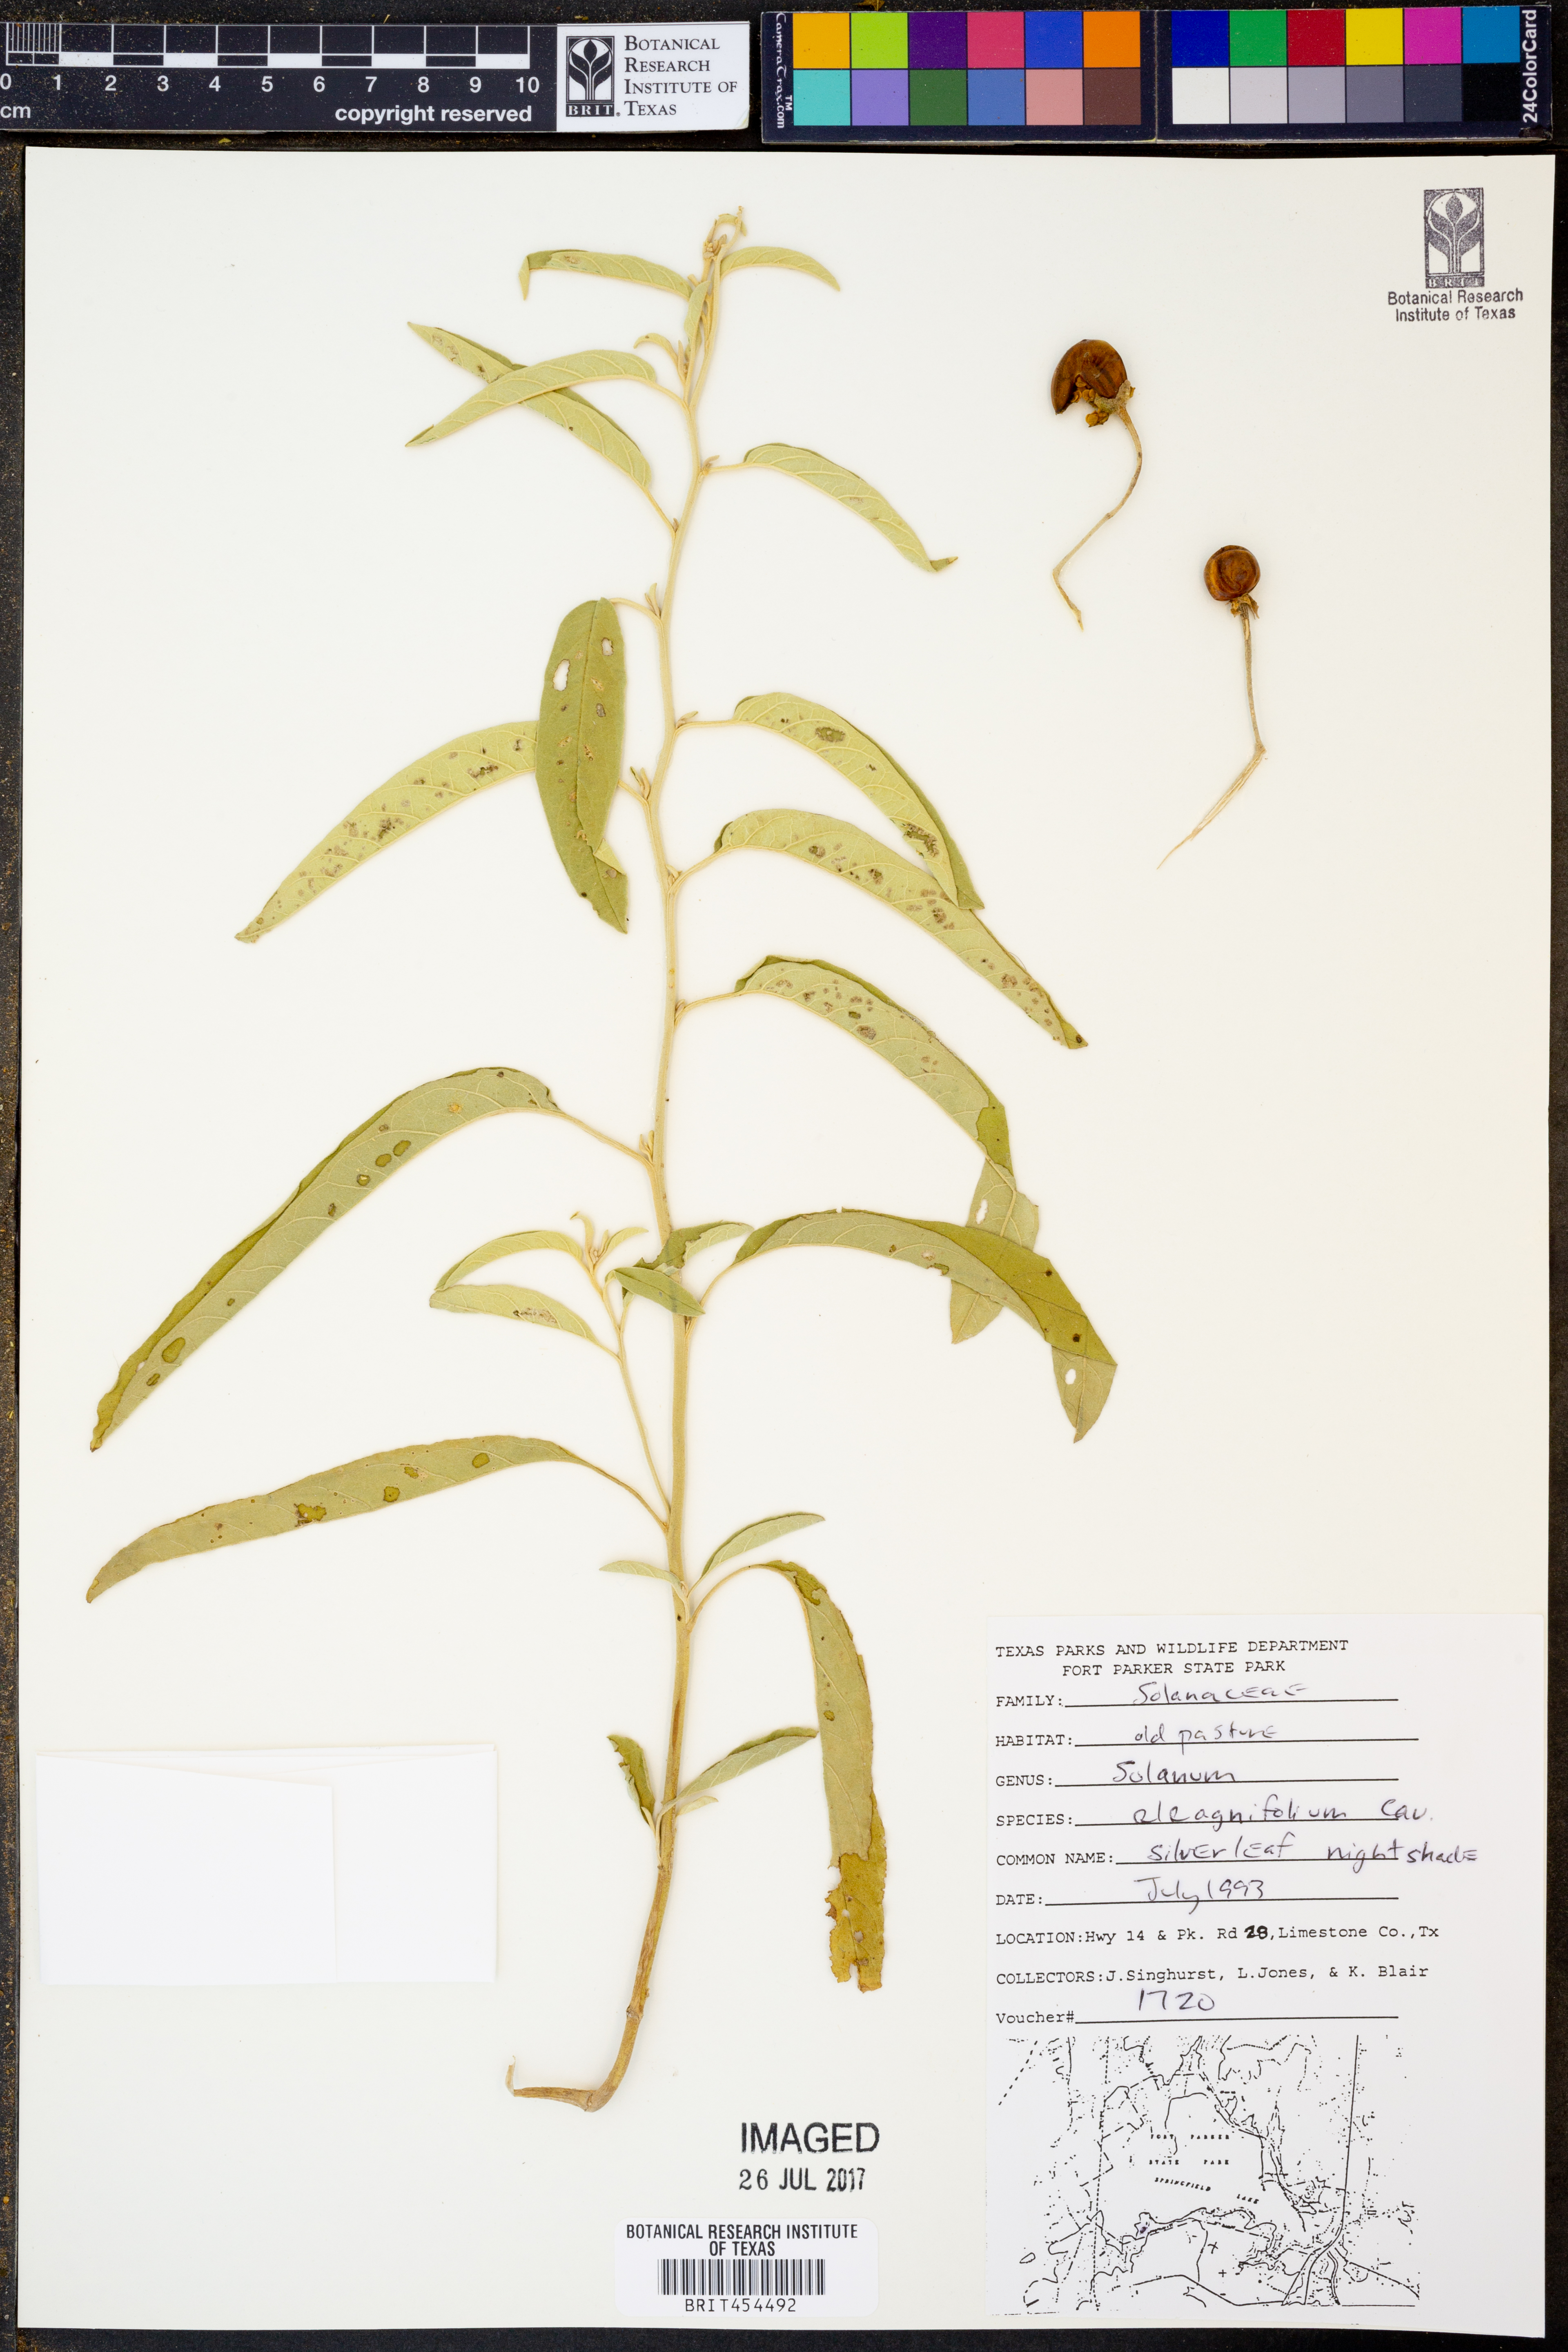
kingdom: Plantae
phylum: Tracheophyta
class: Magnoliopsida
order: Solanales
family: Solanaceae
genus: Solanum
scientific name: Solanum elaeagnifolium
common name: Silverleaf nightshade
